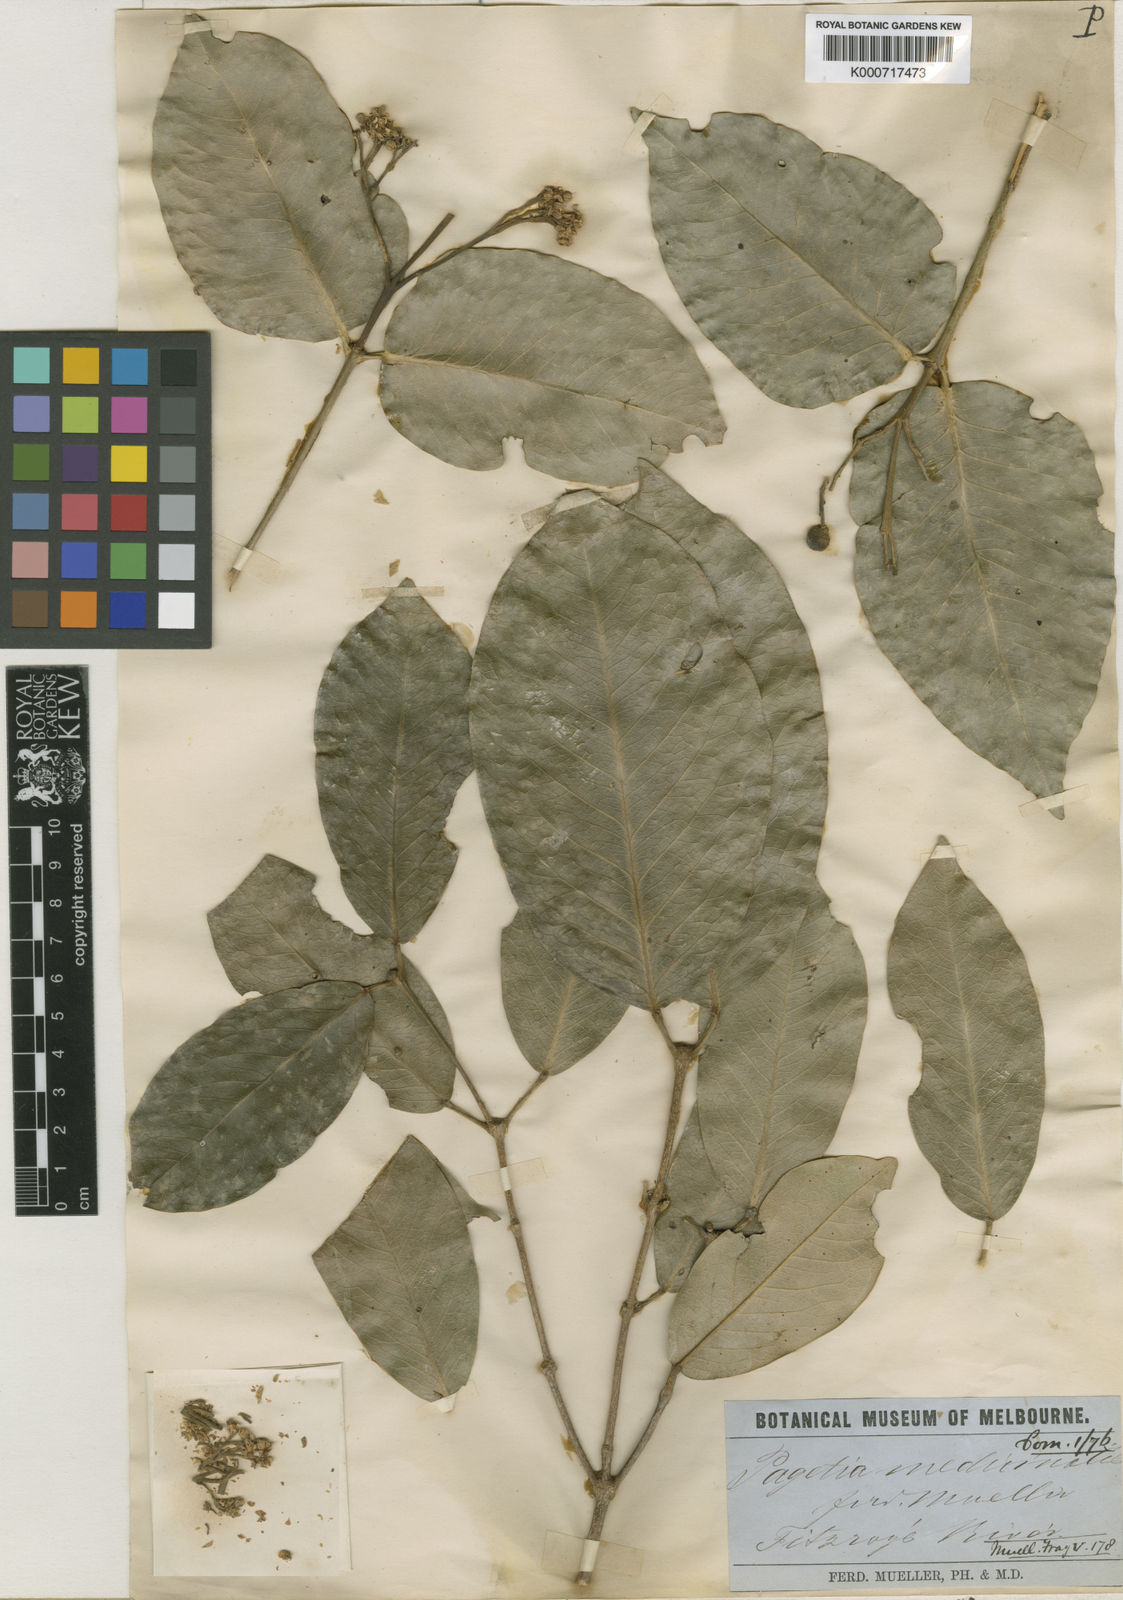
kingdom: Plantae
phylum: Tracheophyta
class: Magnoliopsida
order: Sapindales
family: Rutaceae
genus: Bosistoa
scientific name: Bosistoa medicinalis
